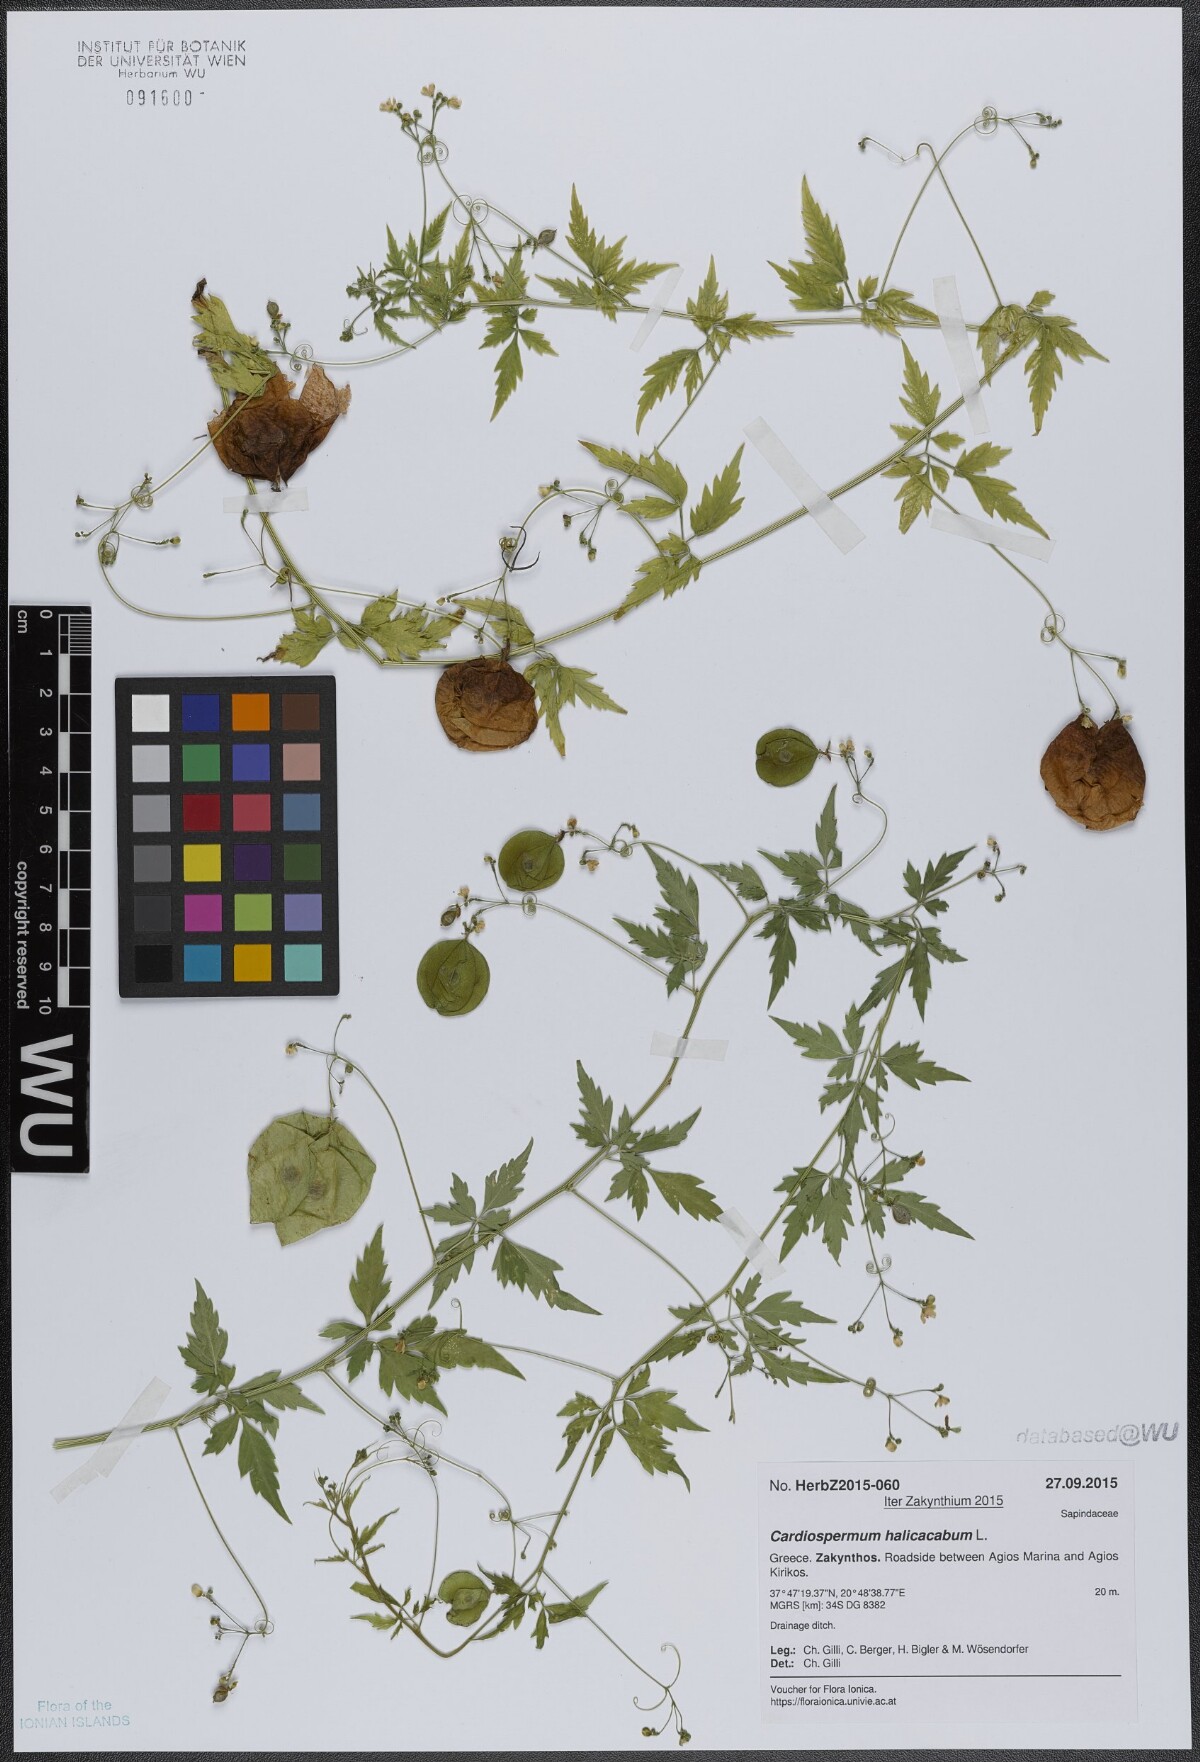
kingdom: Plantae
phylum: Tracheophyta
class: Magnoliopsida
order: Sapindales
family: Sapindaceae
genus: Cardiospermum
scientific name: Cardiospermum halicacabum
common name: Balloon vine
